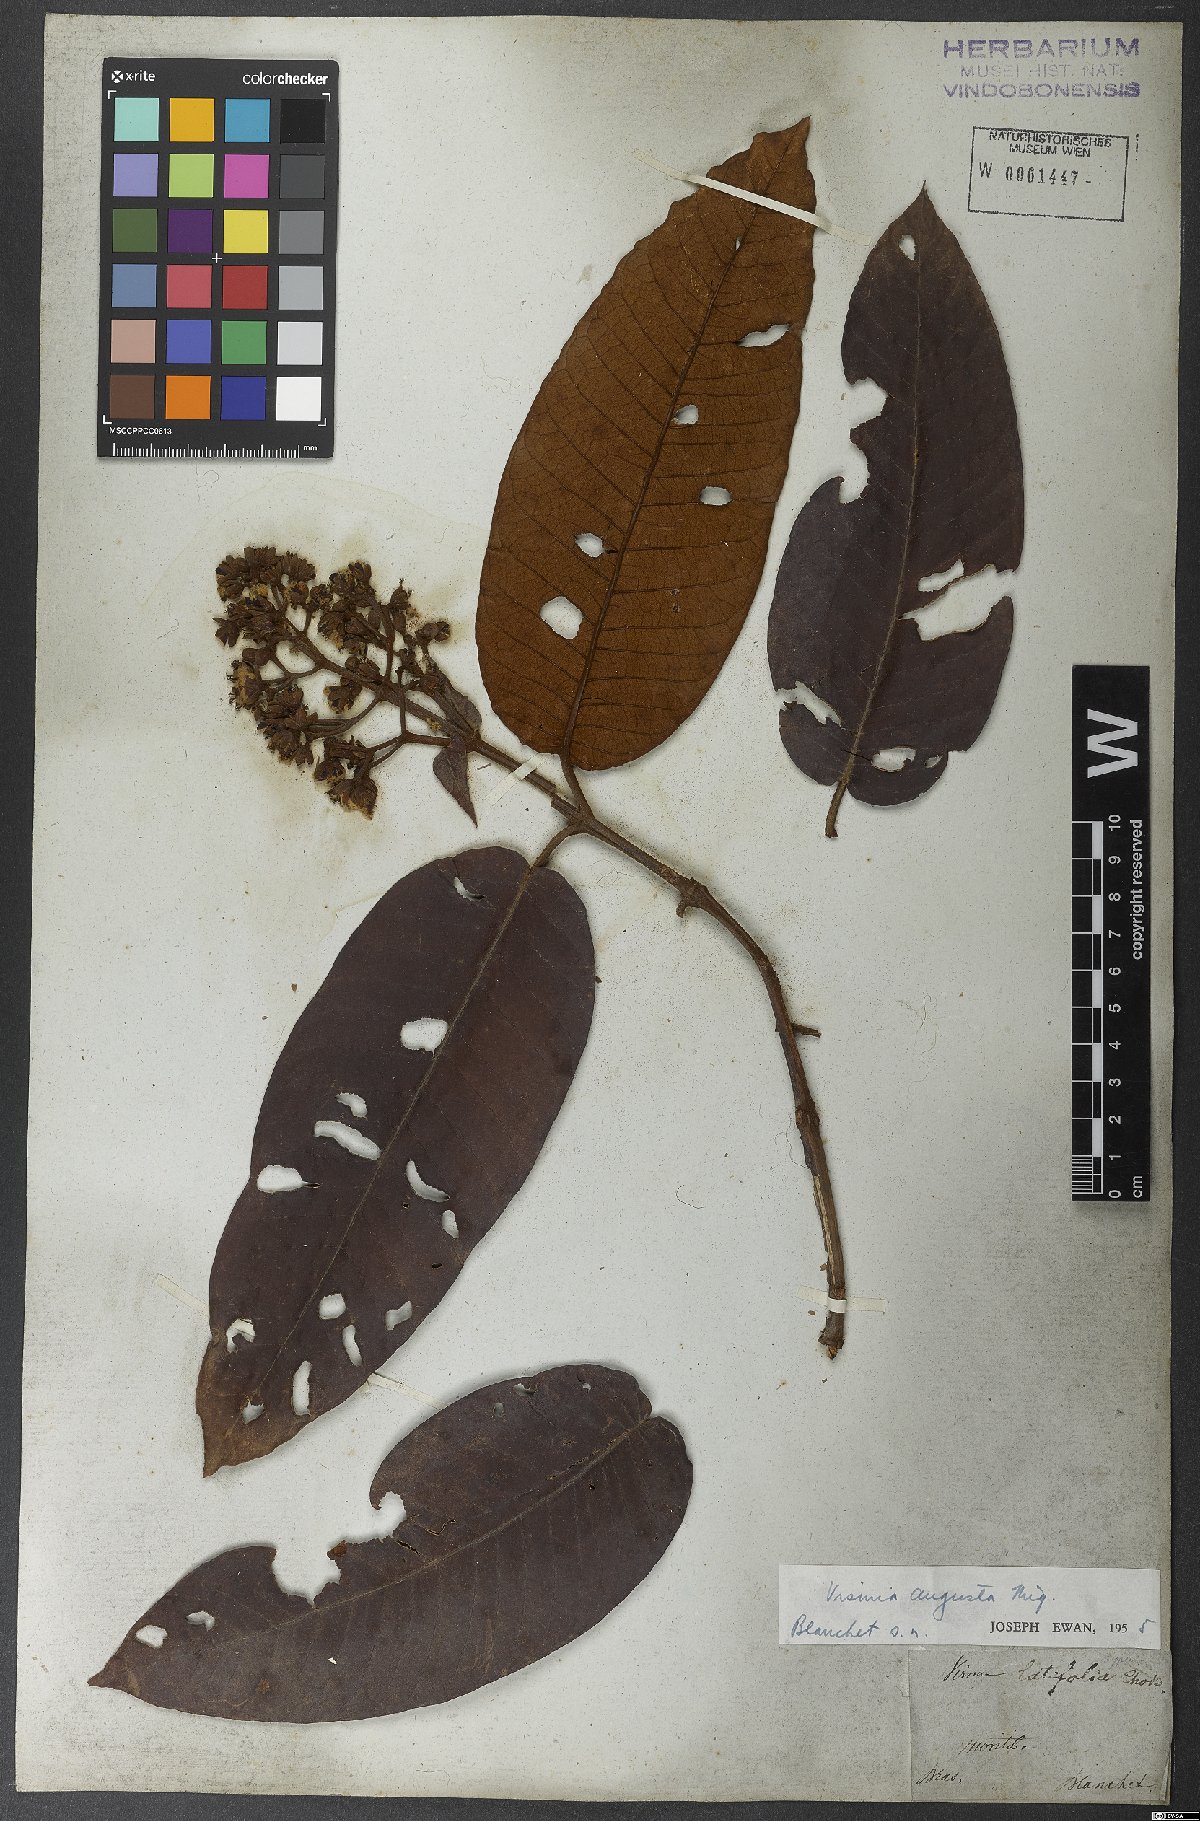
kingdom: Plantae
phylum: Tracheophyta
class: Magnoliopsida
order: Malpighiales
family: Hypericaceae
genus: Vismia
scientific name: Vismia macrophylla
